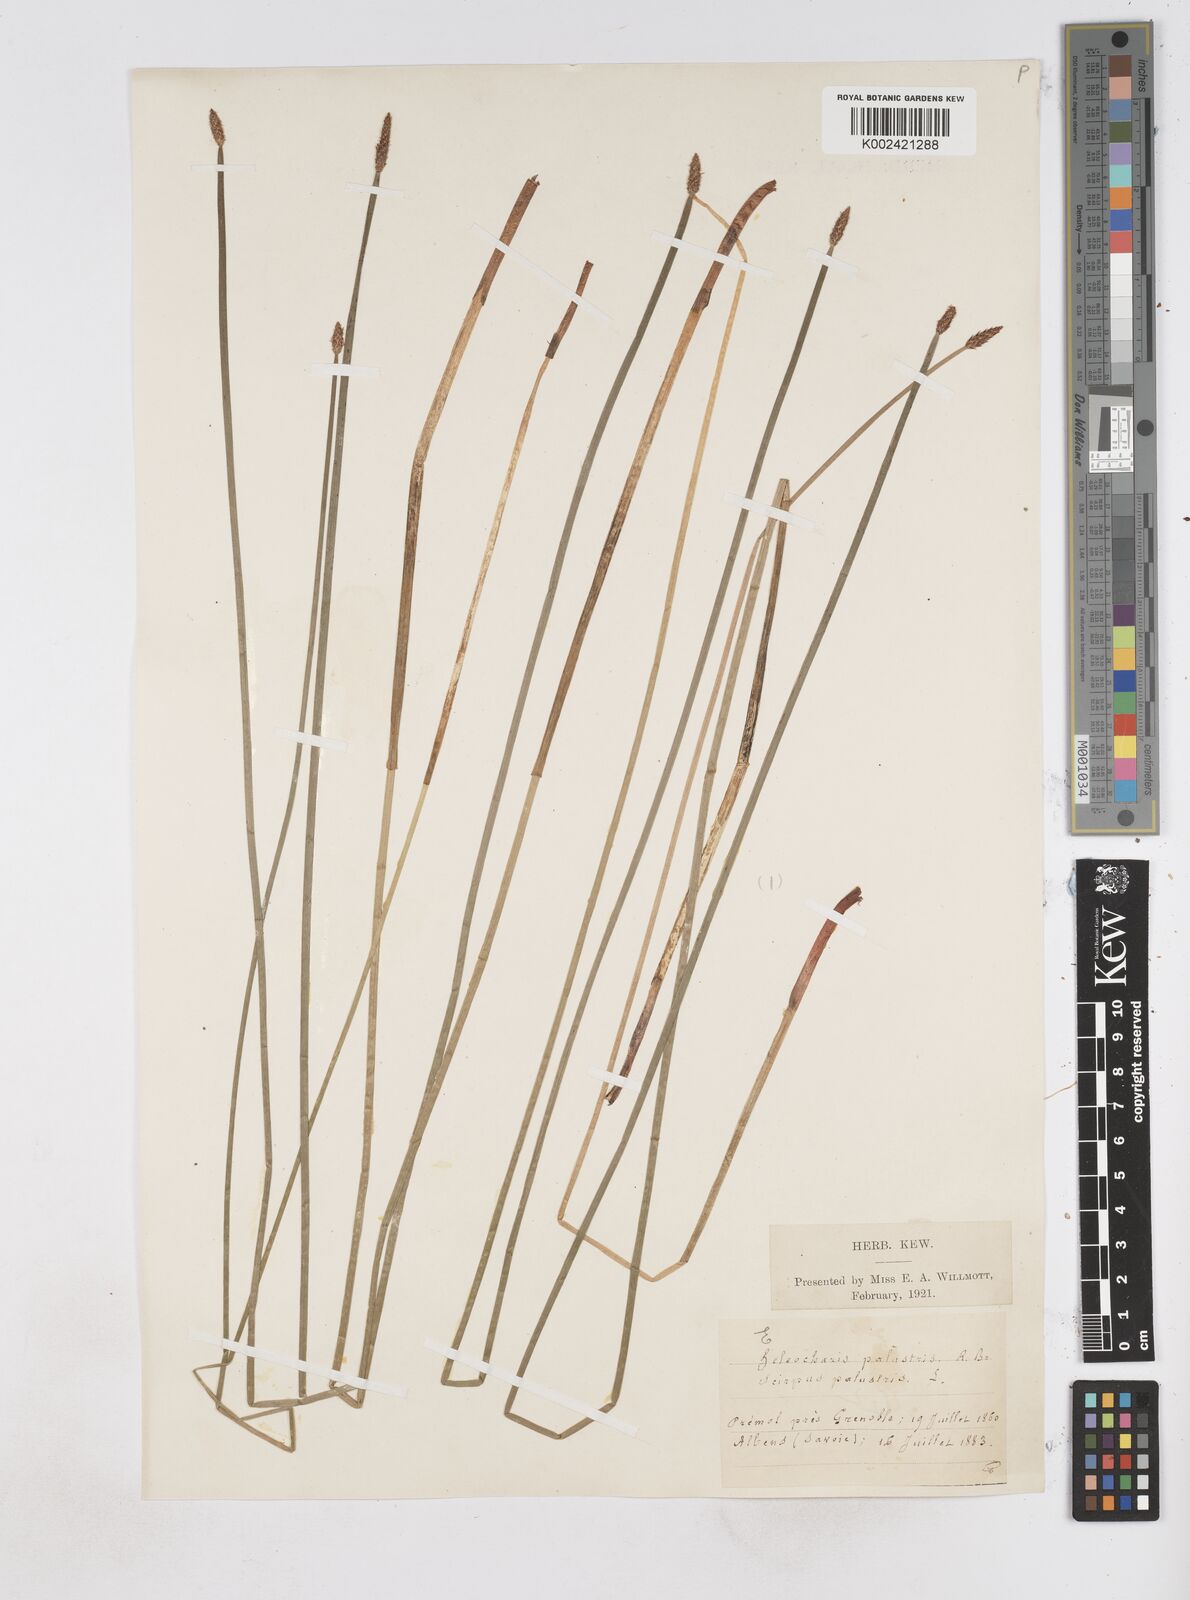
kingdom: Plantae
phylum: Tracheophyta
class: Liliopsida
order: Poales
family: Cyperaceae
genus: Eleocharis
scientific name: Eleocharis palustris
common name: Common spike-rush
